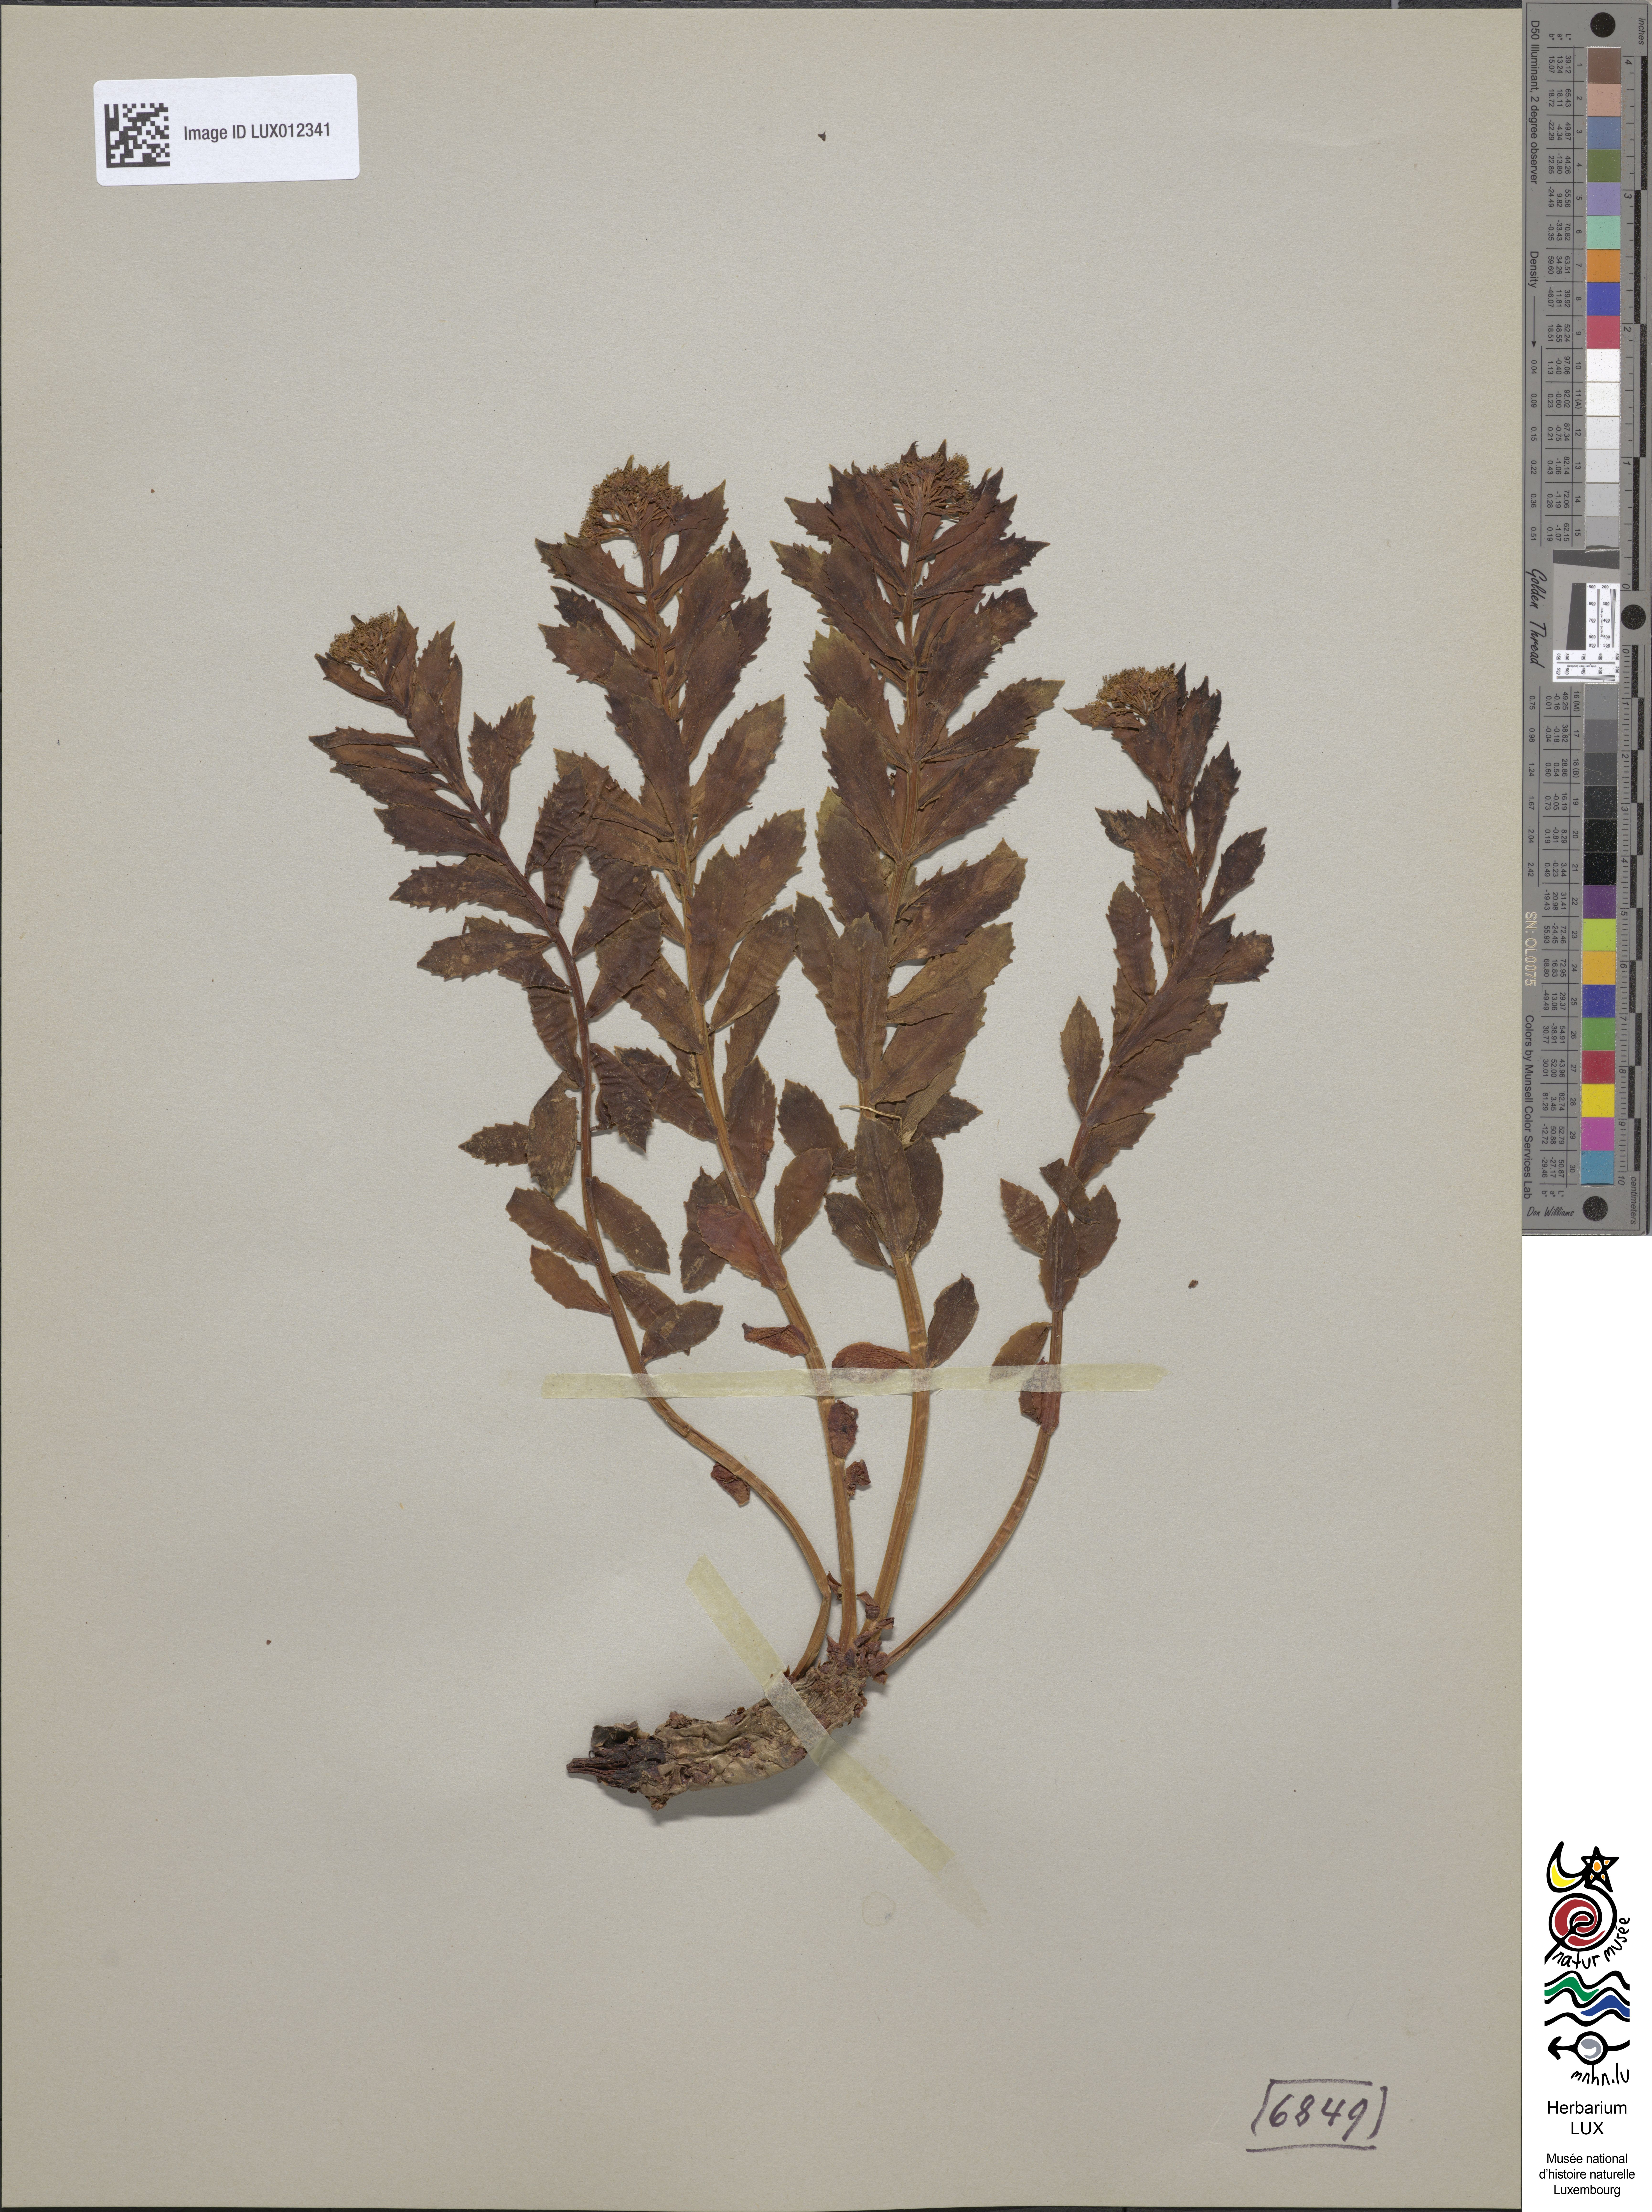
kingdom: Plantae
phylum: Tracheophyta
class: Magnoliopsida
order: Saxifragales
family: Crassulaceae
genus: Rhodiola
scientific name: Rhodiola rosea
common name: Roseroot
